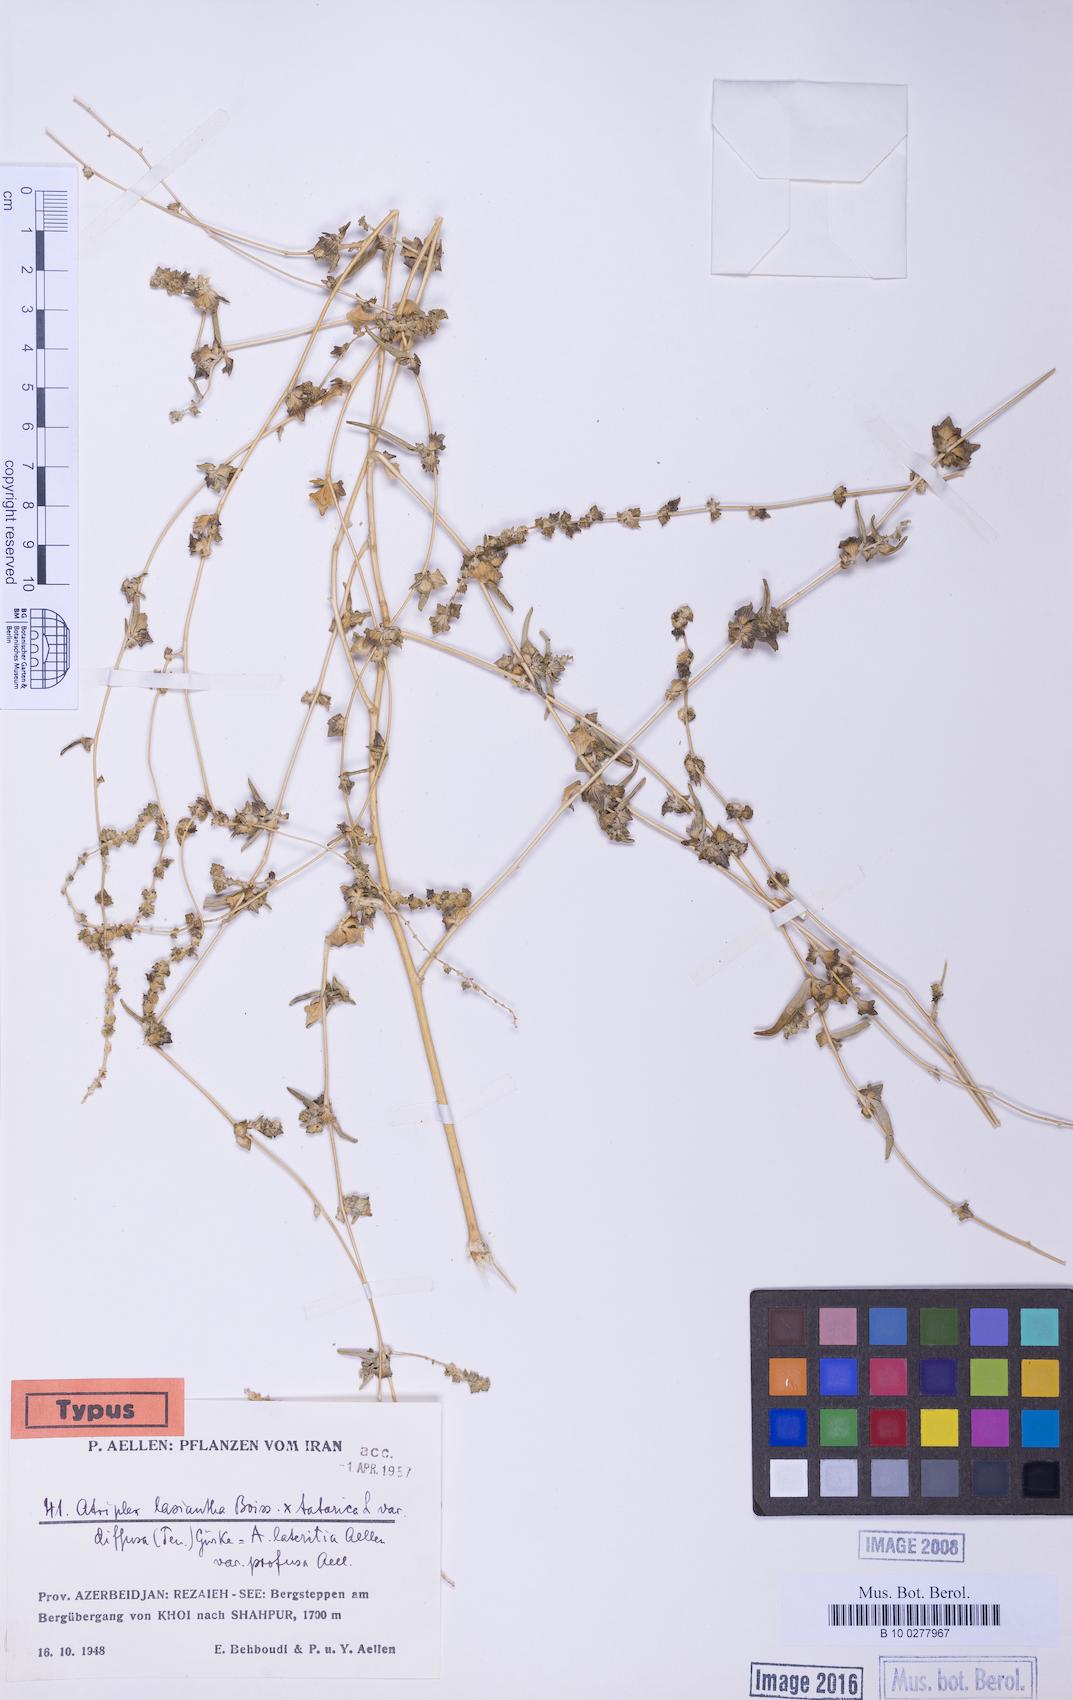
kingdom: Plantae
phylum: Tracheophyta
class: Magnoliopsida
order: Caryophyllales
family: Amaranthaceae
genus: Atriplex
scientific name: Atriplex lasiantha
